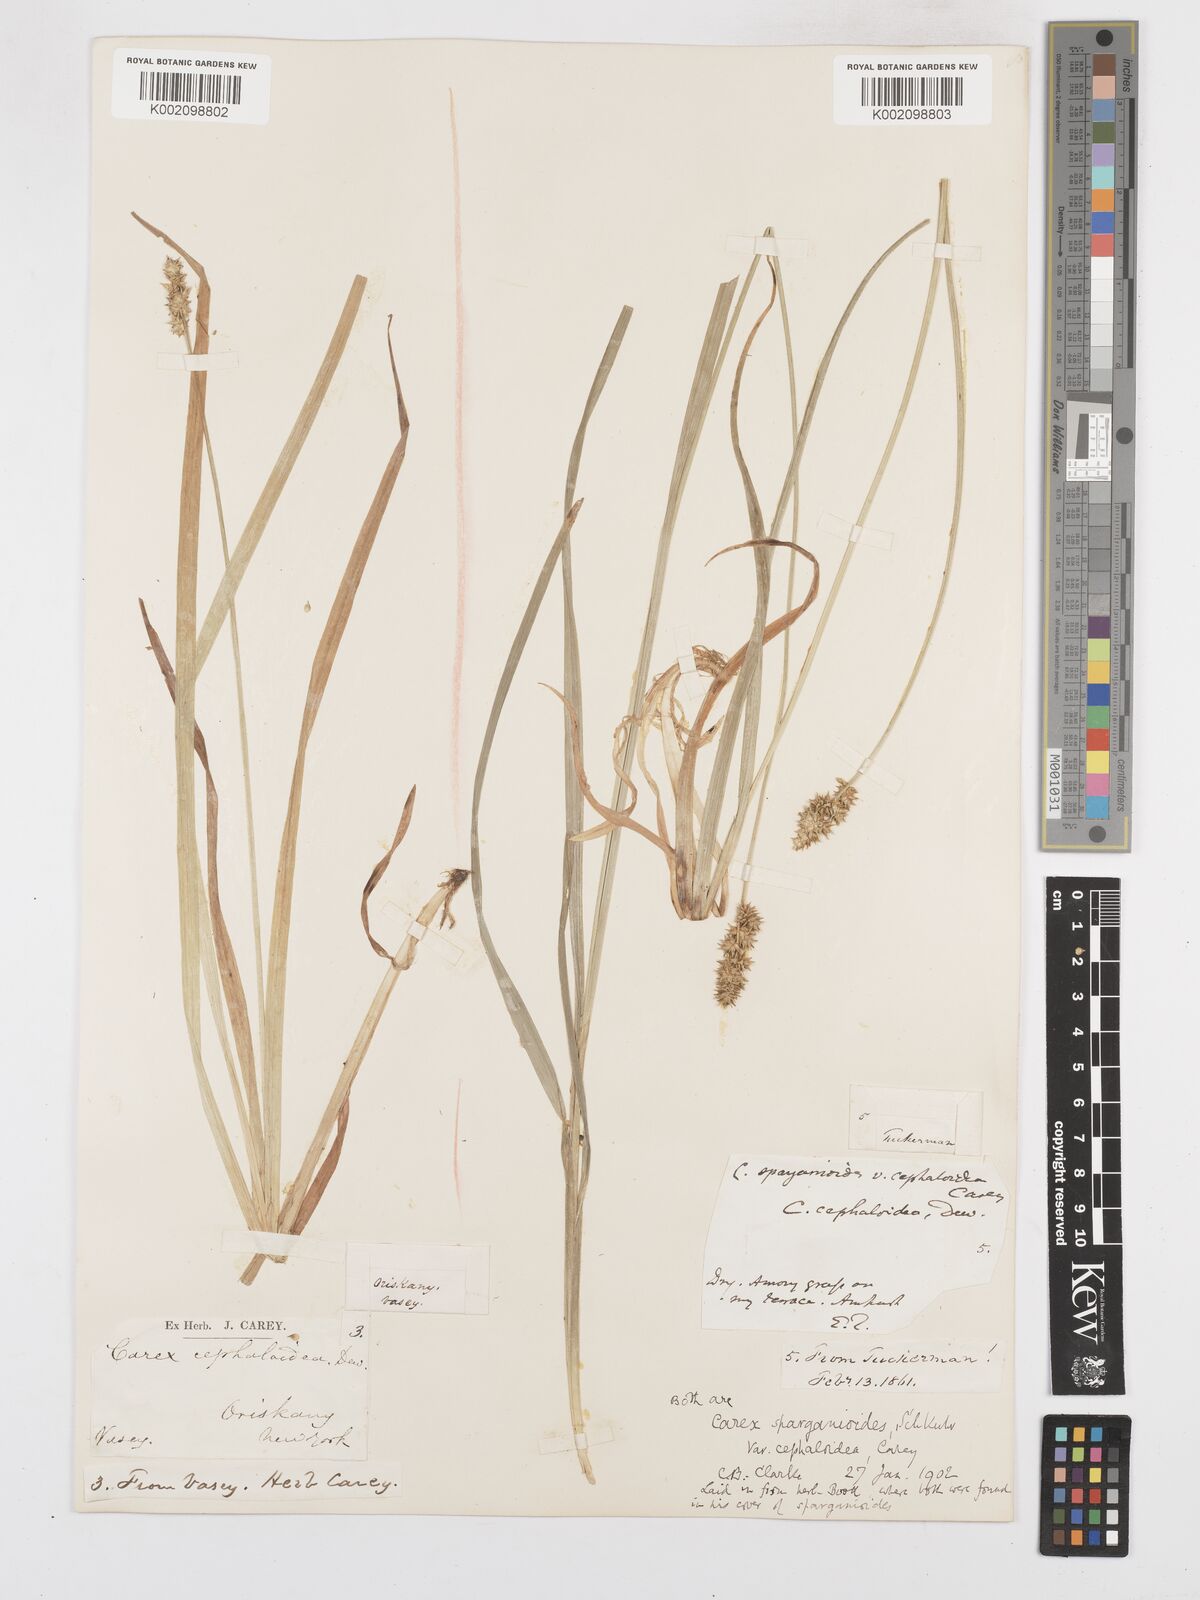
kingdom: Plantae
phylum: Tracheophyta
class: Liliopsida
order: Poales
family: Cyperaceae
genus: Carex
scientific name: Carex sparganioides
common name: Burreed sedge
